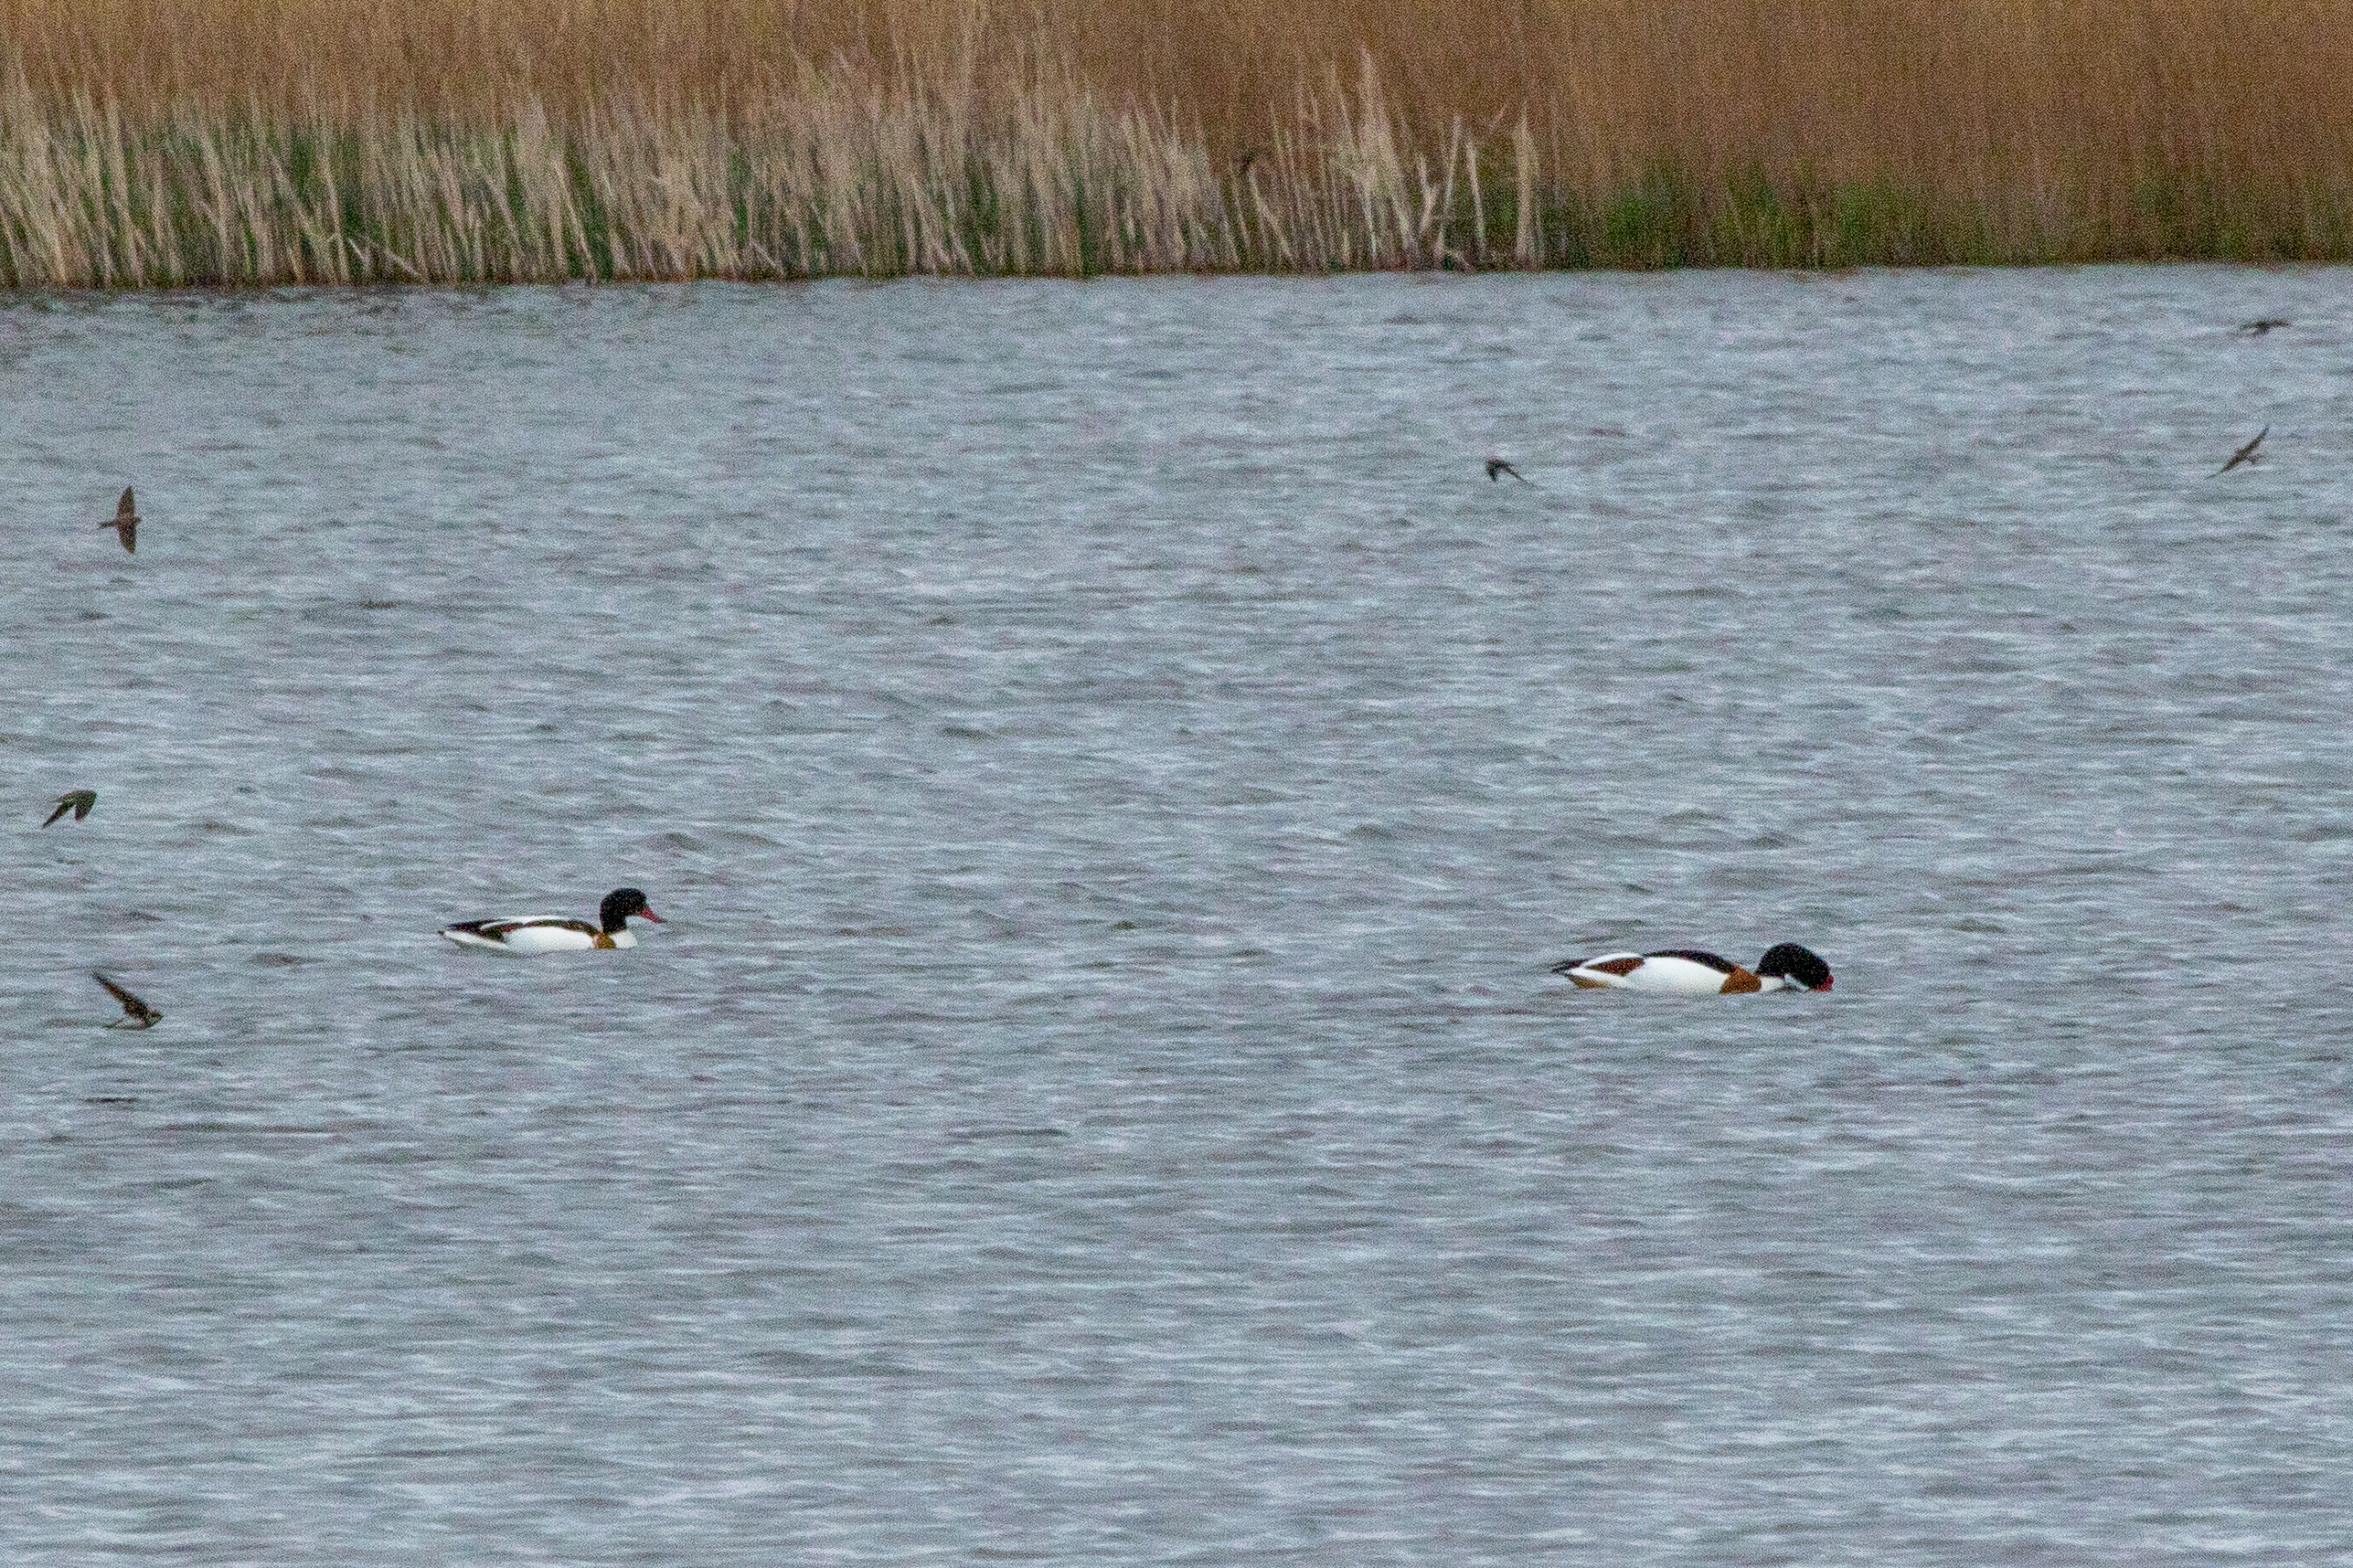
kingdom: Animalia
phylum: Chordata
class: Aves
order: Anseriformes
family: Anatidae
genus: Tadorna
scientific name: Tadorna tadorna
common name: Gravand
